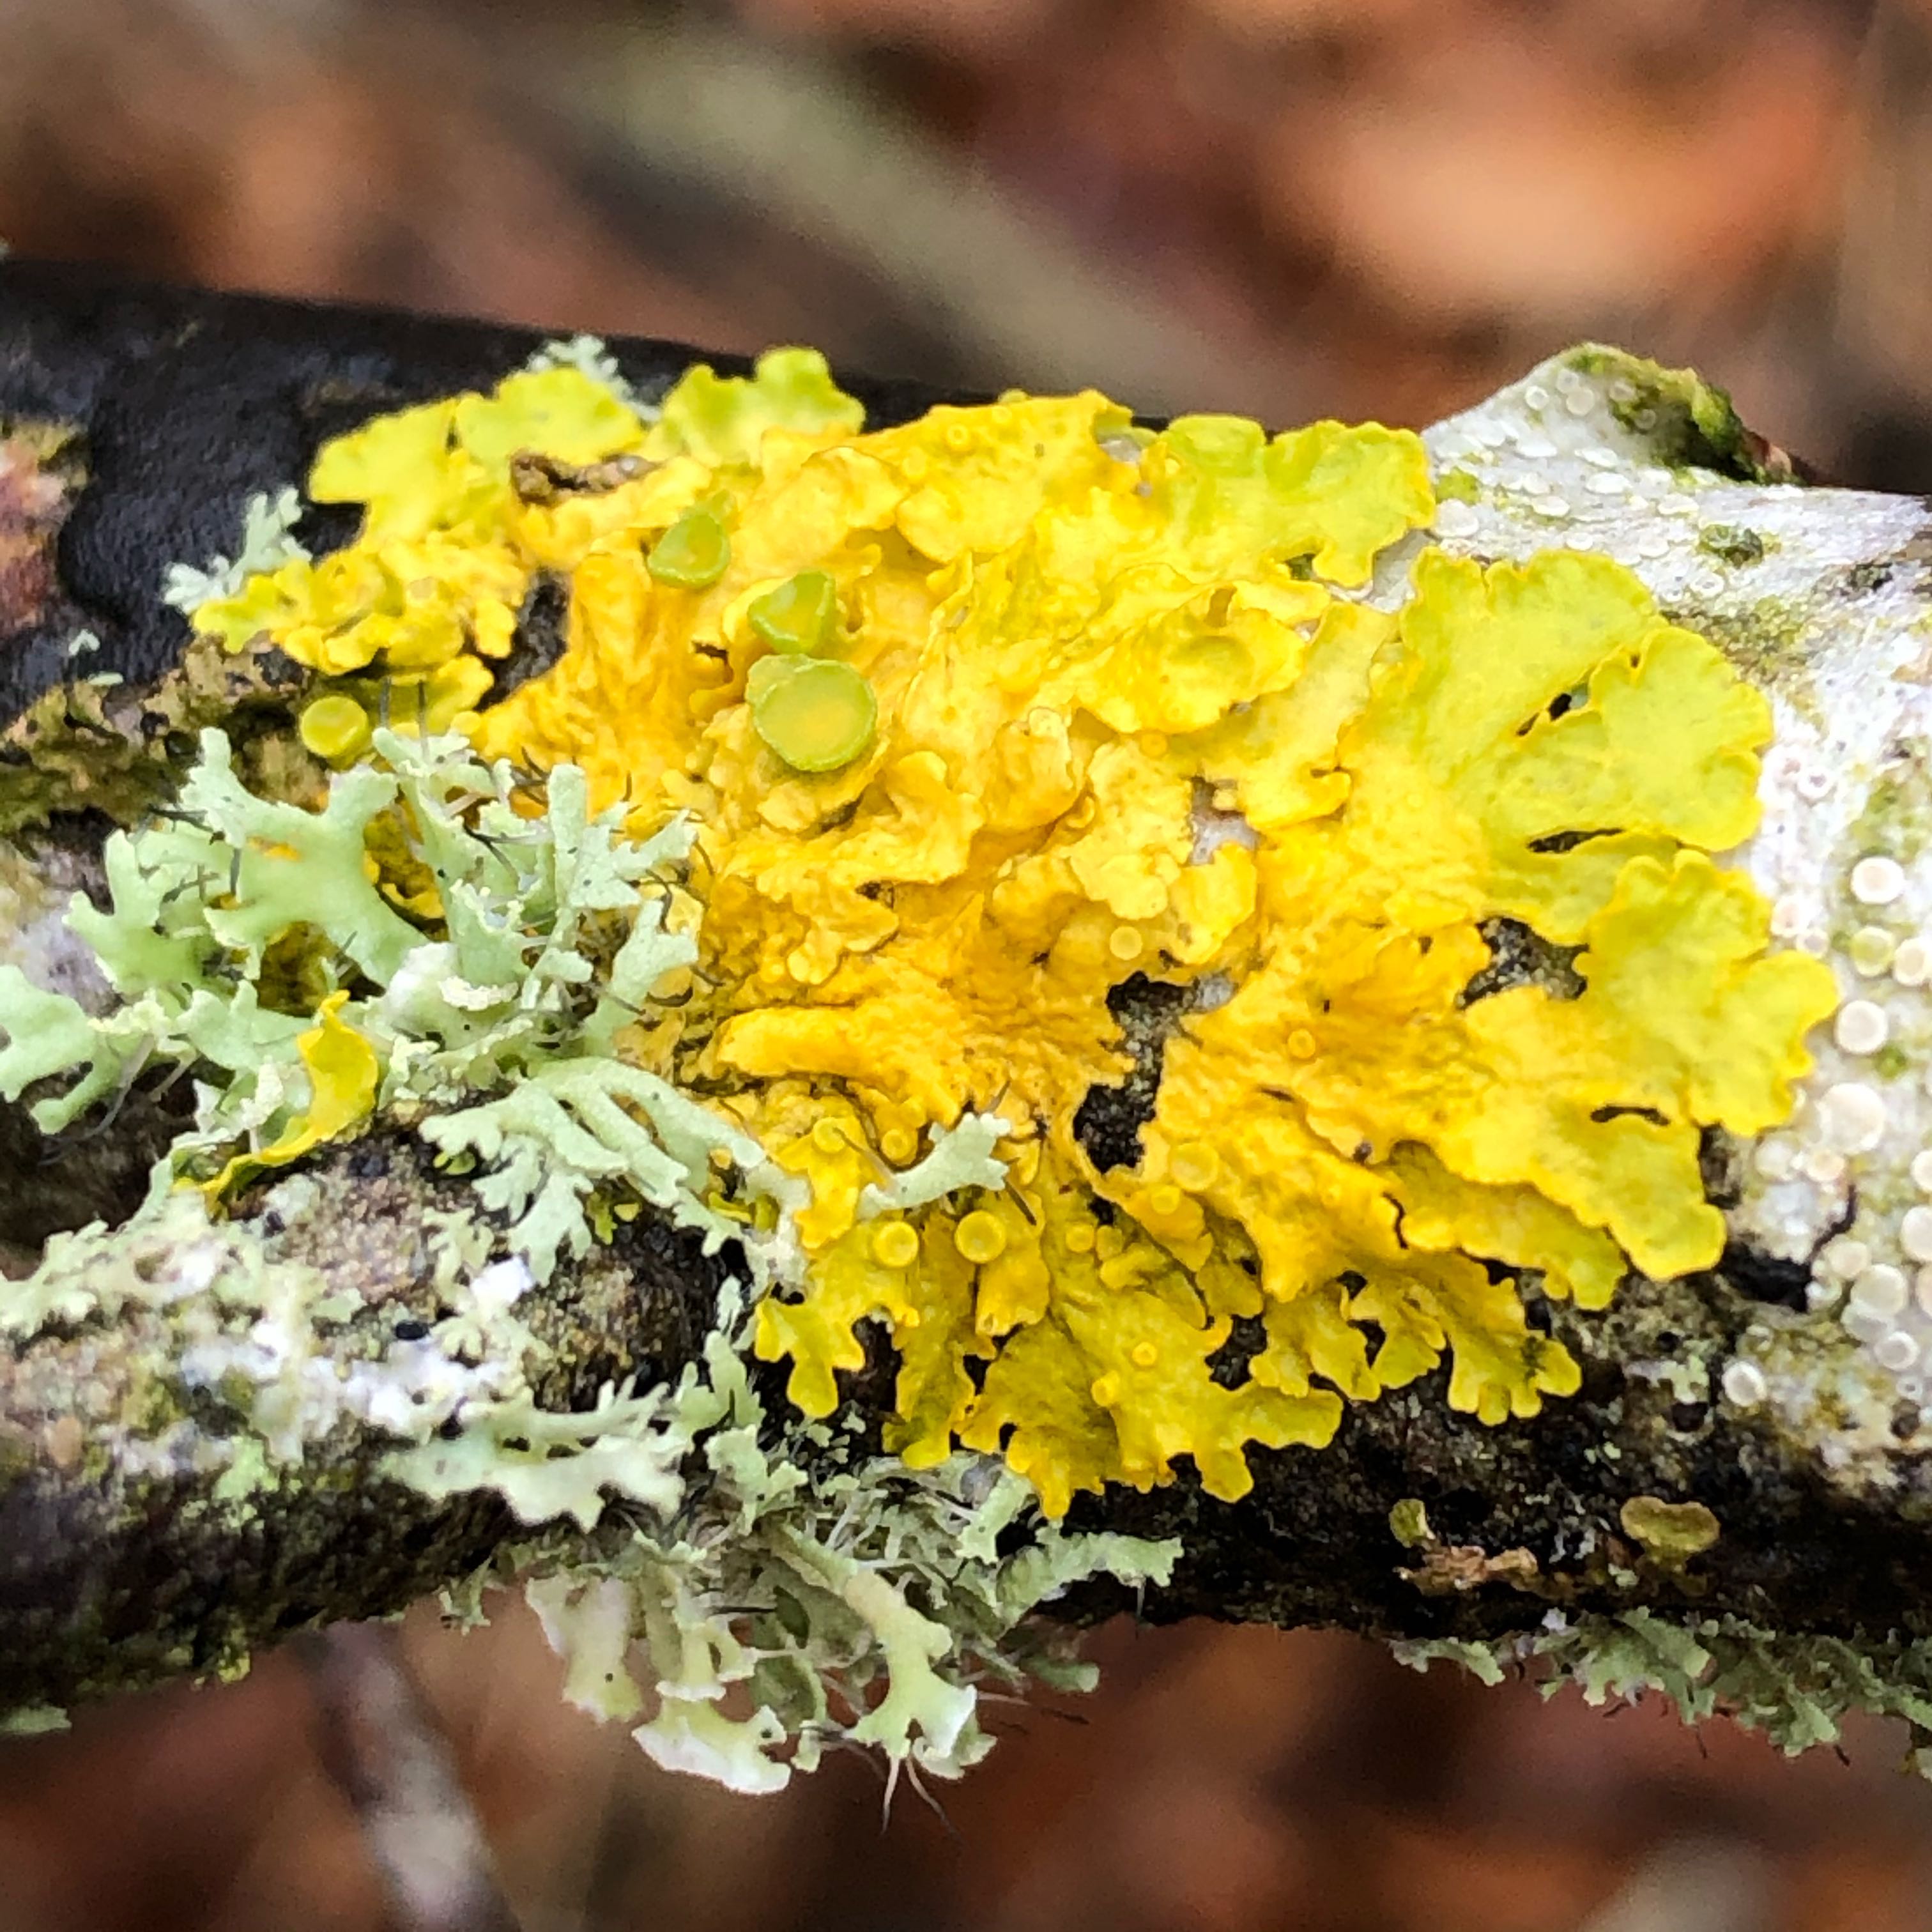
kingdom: Fungi
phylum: Ascomycota
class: Lecanoromycetes
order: Teloschistales
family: Teloschistaceae
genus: Xanthoria
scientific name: Xanthoria parietina
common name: almindelig væggelav
